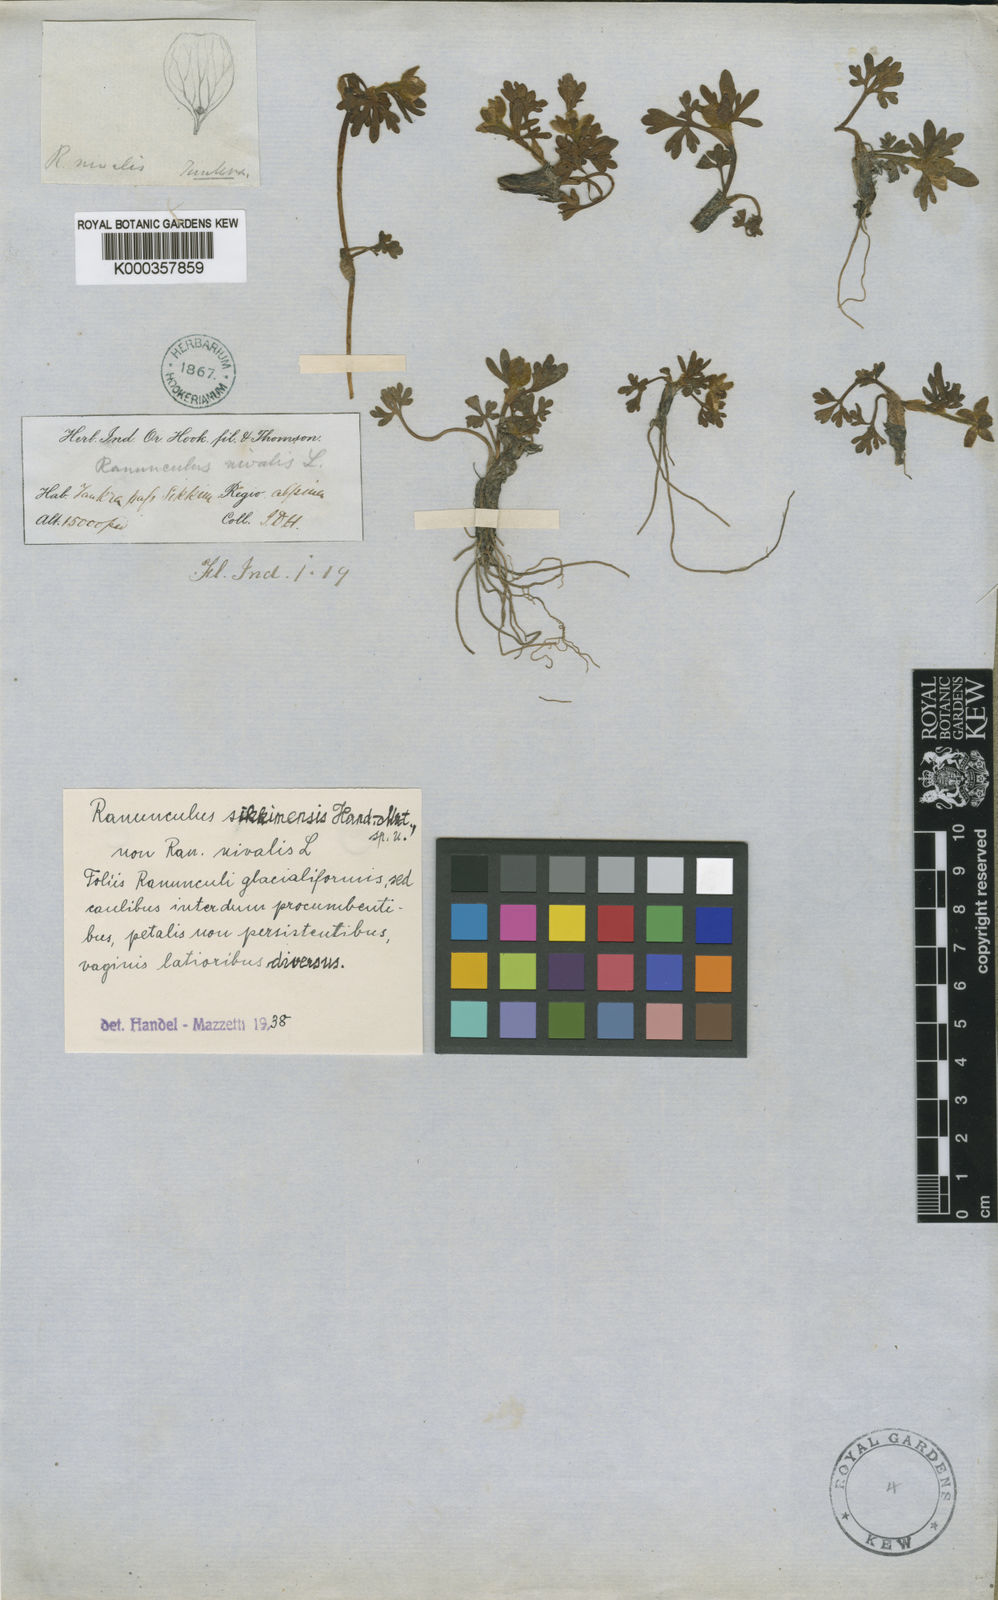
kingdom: Plantae
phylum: Tracheophyta
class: Magnoliopsida
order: Ranunculales
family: Ranunculaceae
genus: Ranunculus
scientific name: Ranunculus sikkimensis
